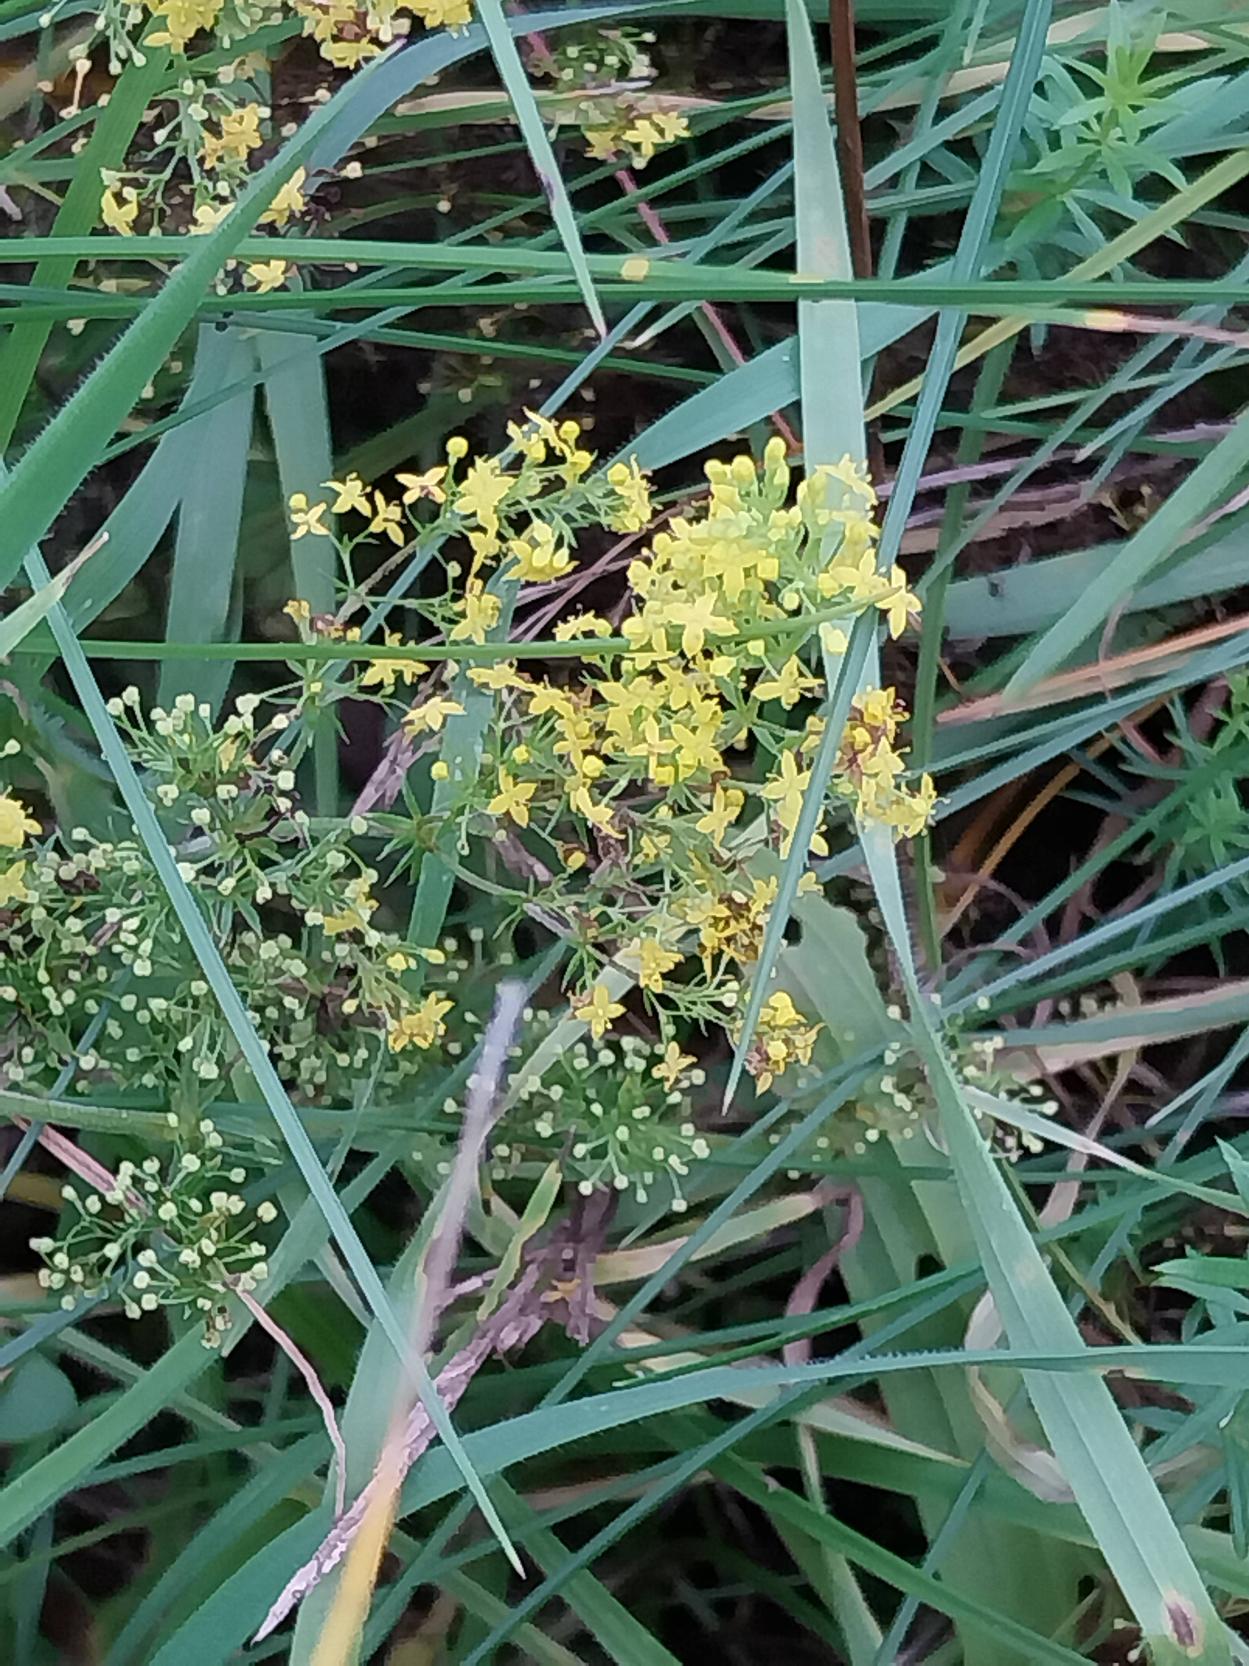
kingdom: Plantae
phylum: Tracheophyta
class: Magnoliopsida
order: Gentianales
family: Rubiaceae
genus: Galium
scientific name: Galium verum
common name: Gul snerre
